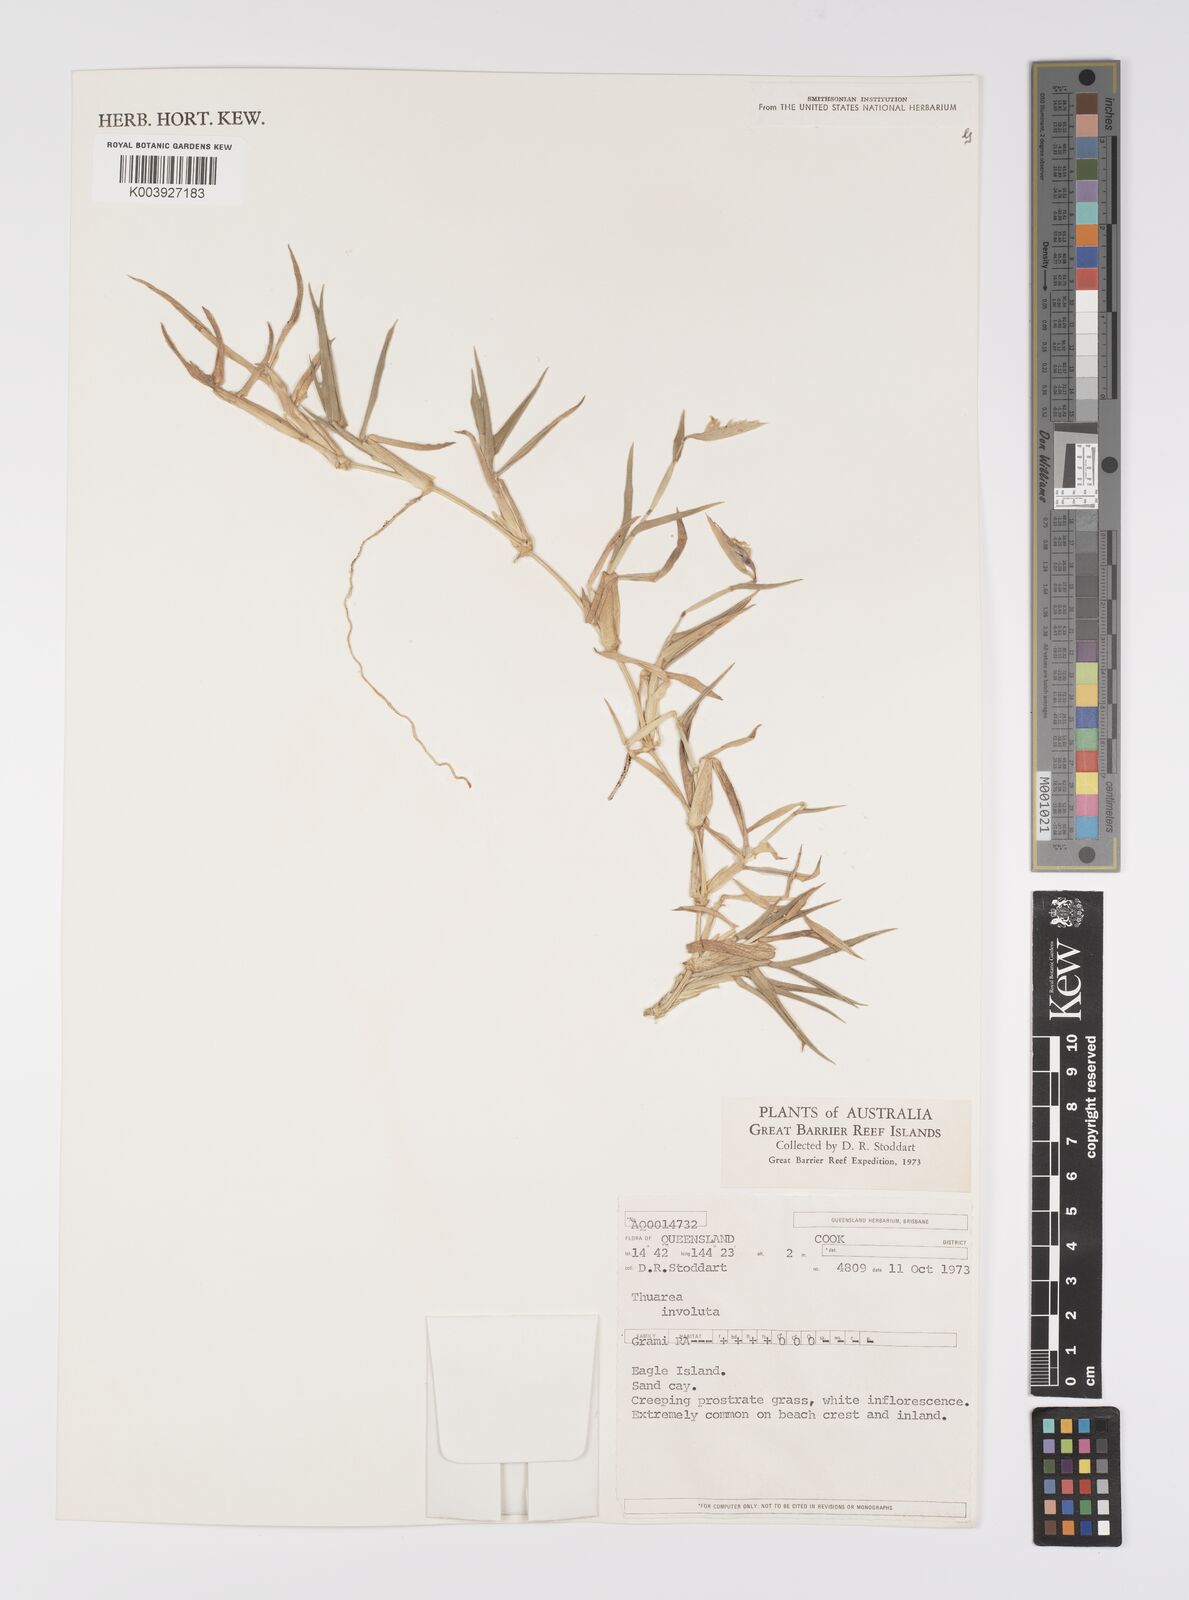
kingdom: Plantae
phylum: Tracheophyta
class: Liliopsida
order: Poales
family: Poaceae
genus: Thuarea
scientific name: Thuarea involuta
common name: Tropical beach grass
